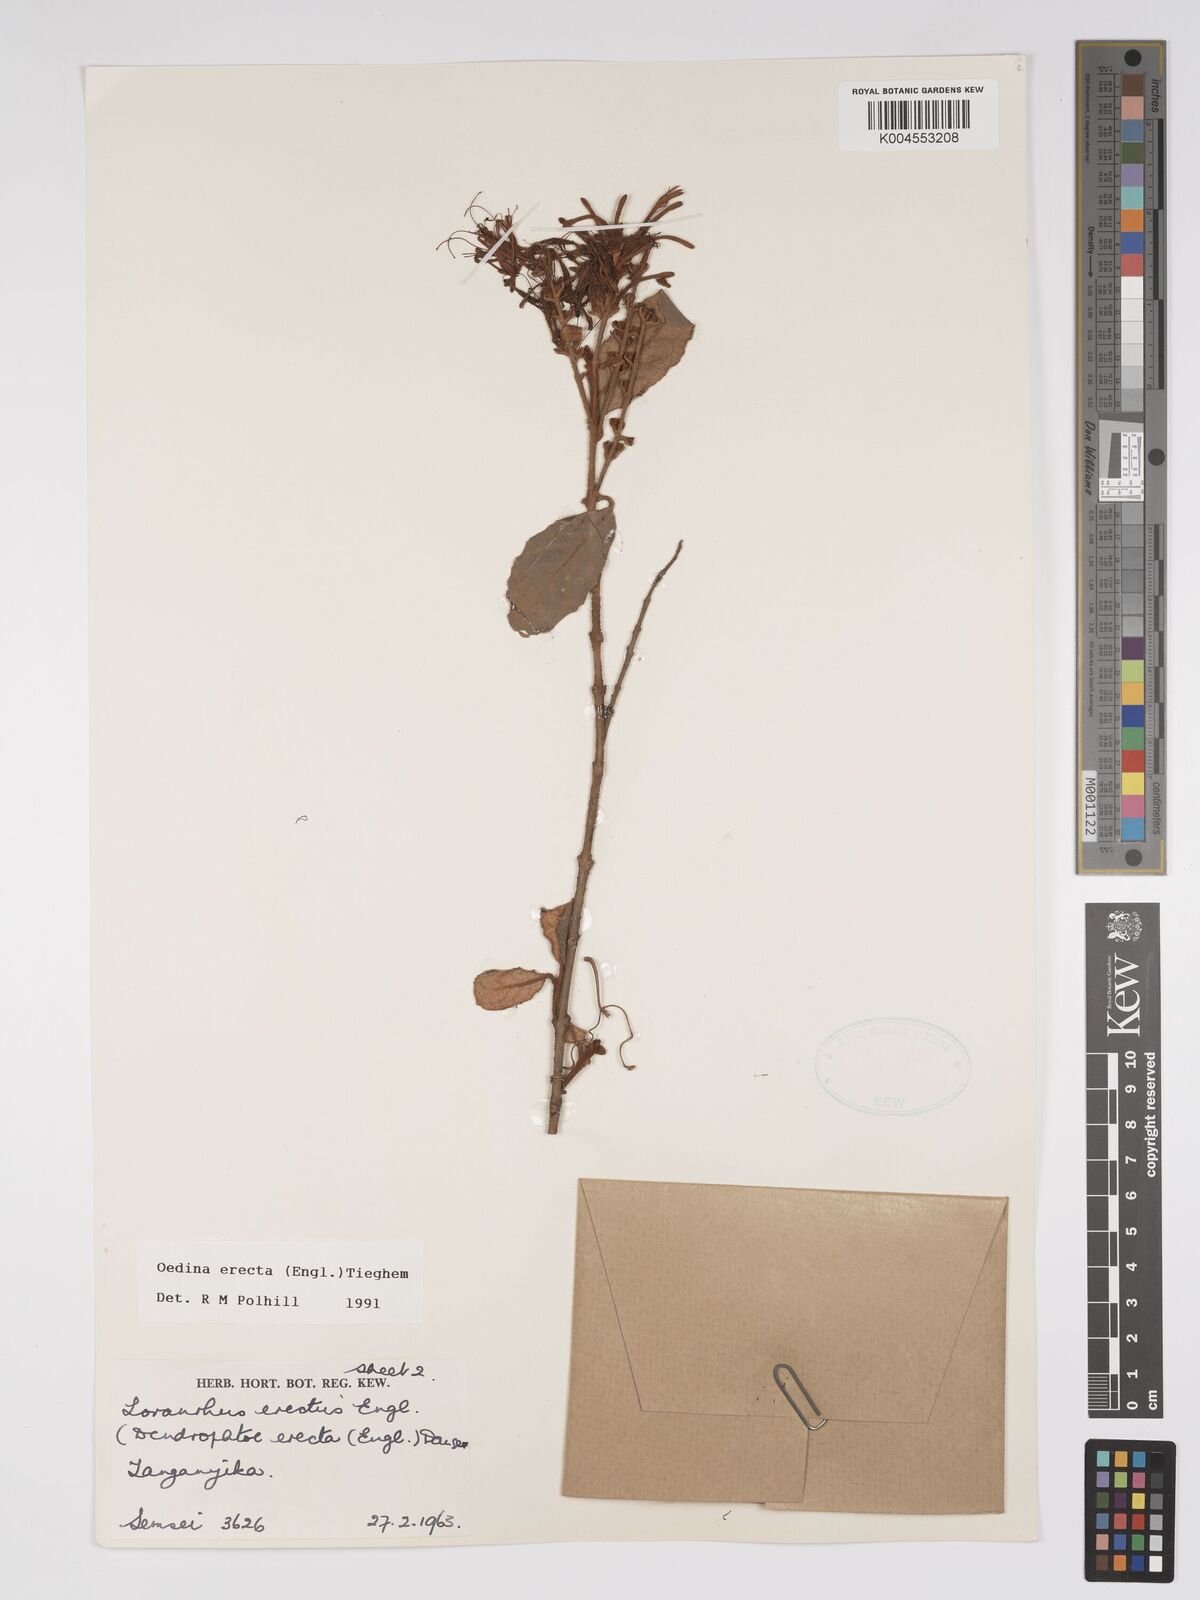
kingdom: Plantae
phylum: Tracheophyta
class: Magnoliopsida
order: Santalales
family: Loranthaceae
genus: Oedina
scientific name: Oedina erecta
